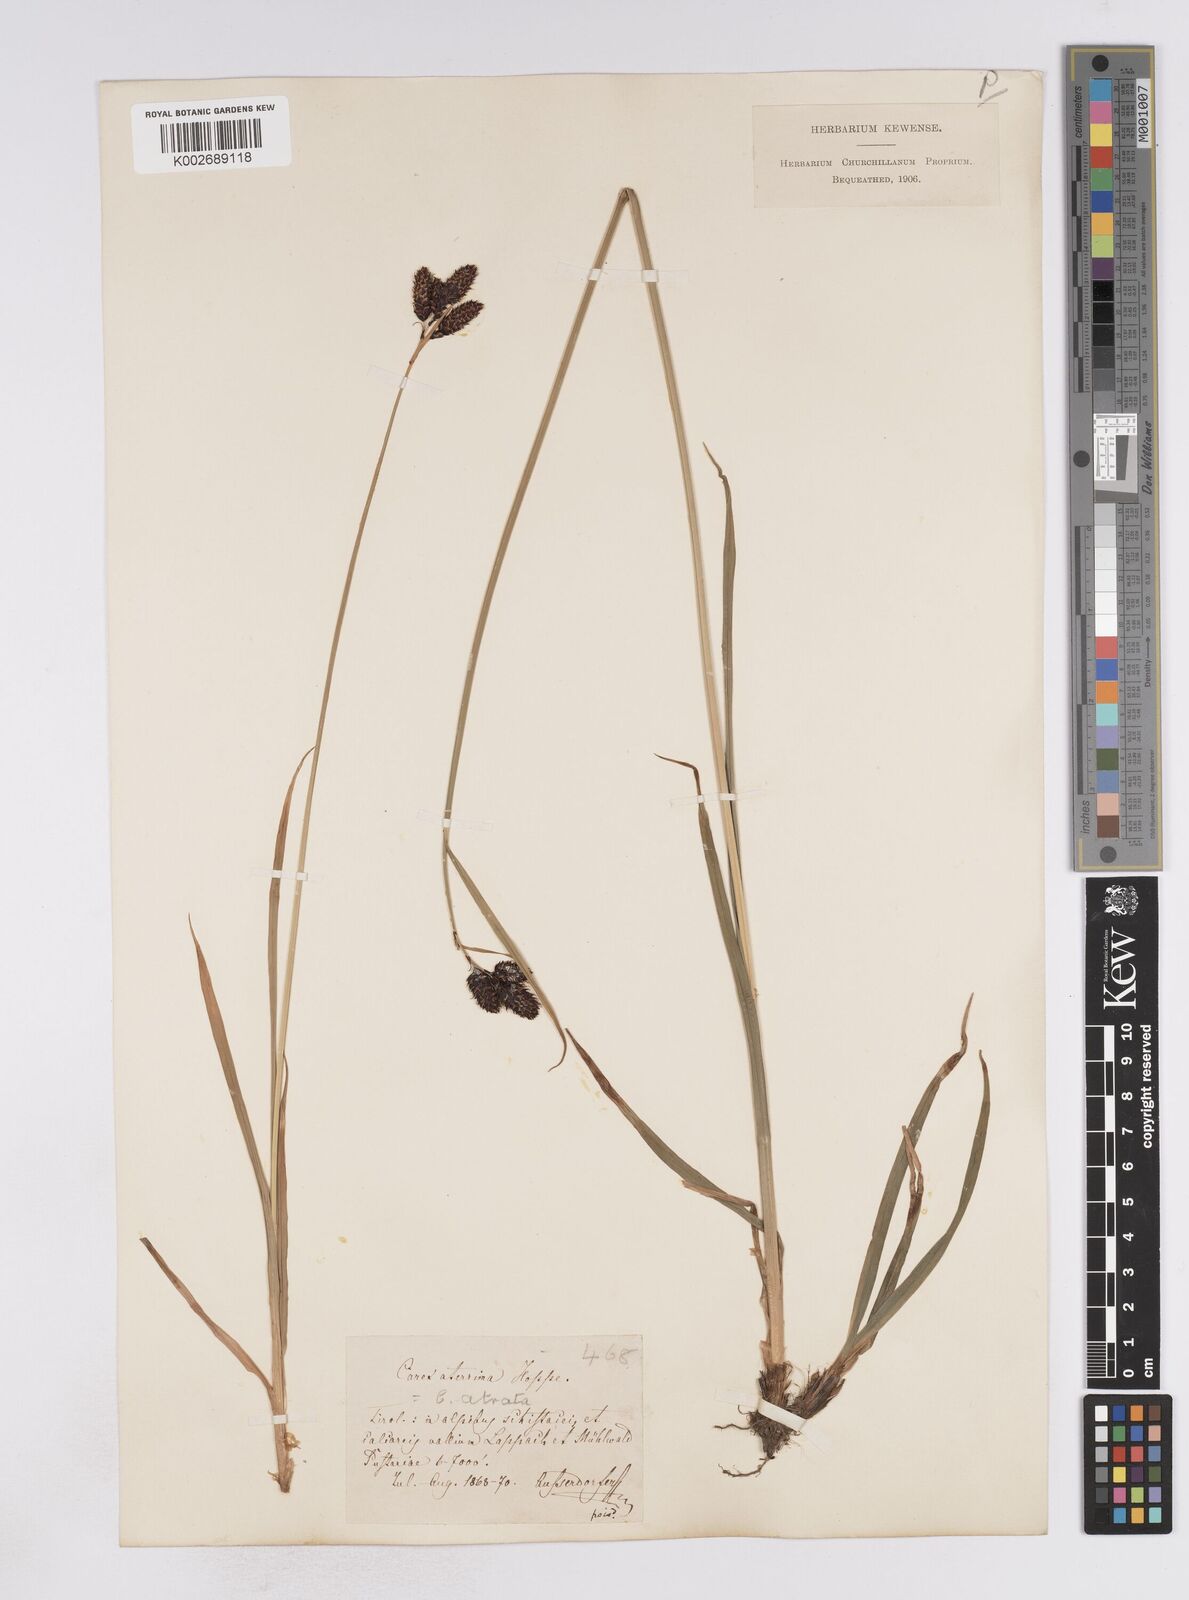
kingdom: Plantae
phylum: Tracheophyta
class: Liliopsida
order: Poales
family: Cyperaceae
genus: Carex
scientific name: Carex aterrima
